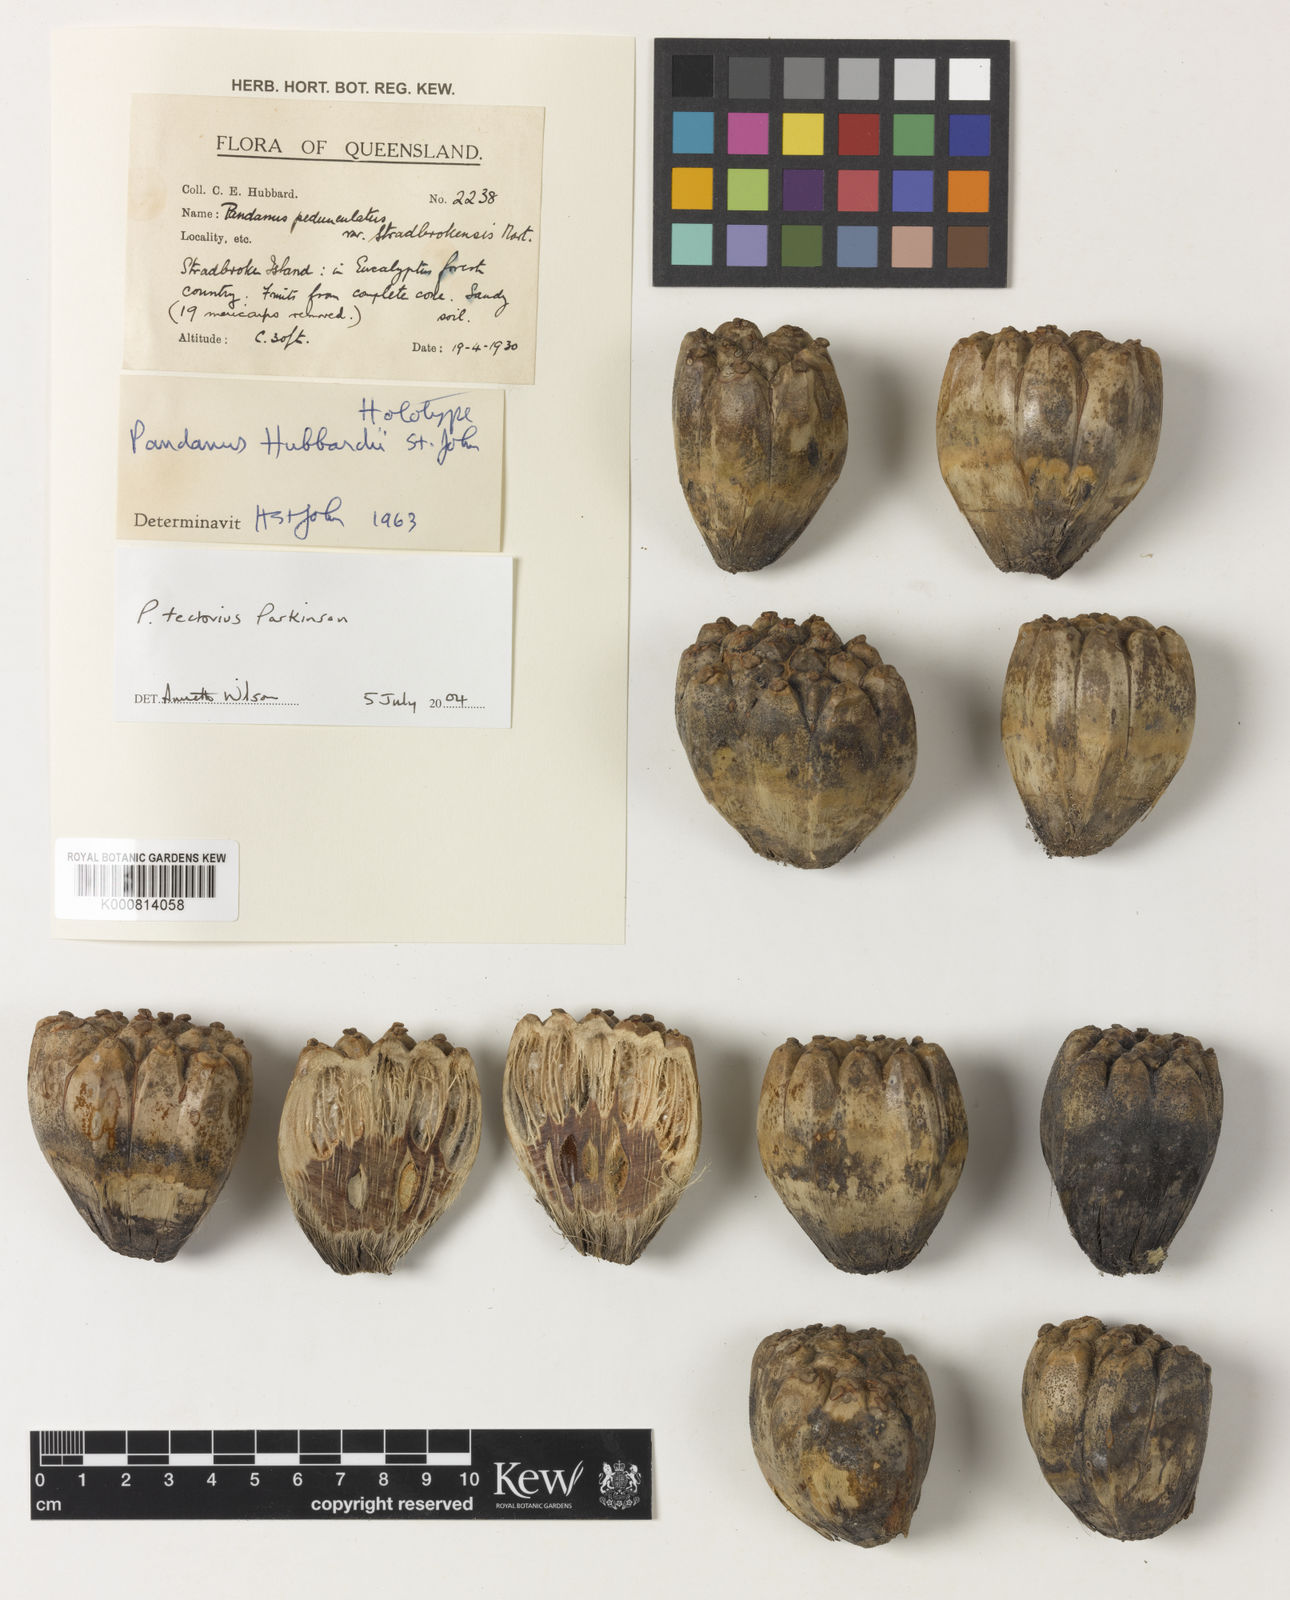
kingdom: Plantae
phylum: Tracheophyta
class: Liliopsida
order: Pandanales
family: Pandanaceae
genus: Pandanus
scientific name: Pandanus
